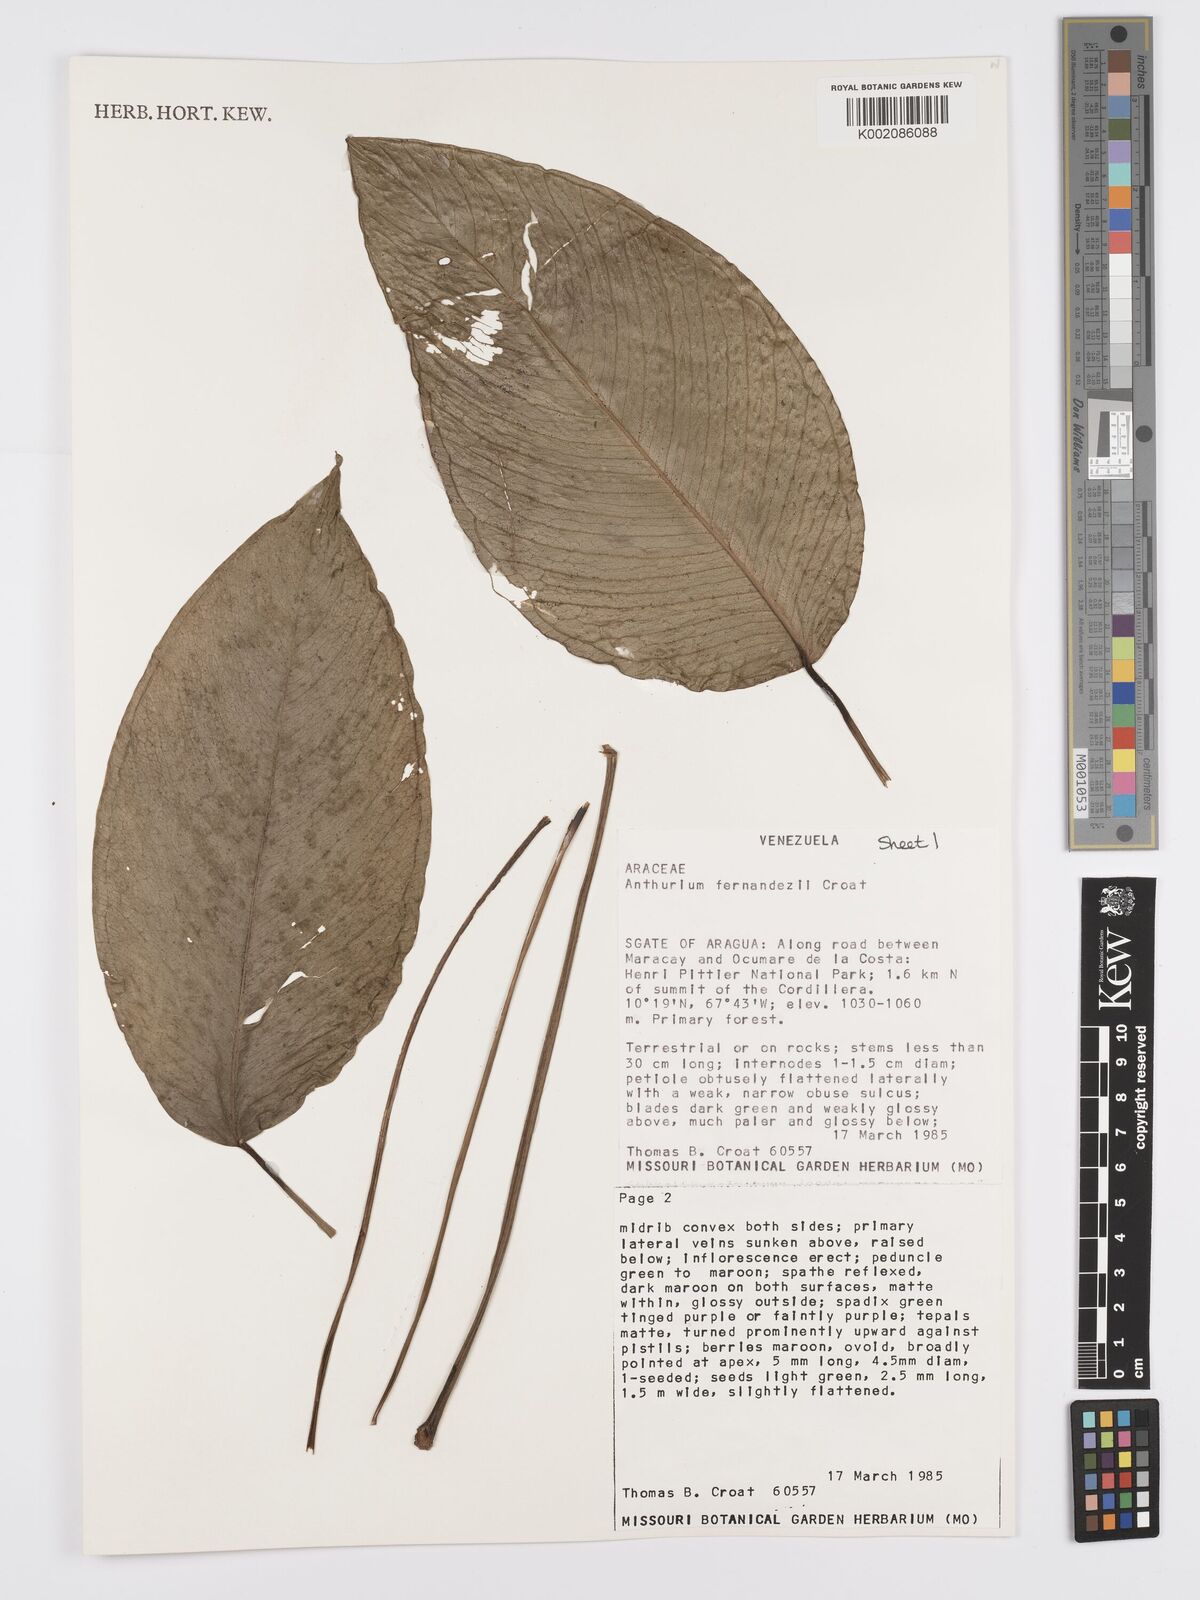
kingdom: Plantae
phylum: Tracheophyta
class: Liliopsida
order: Alismatales
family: Araceae
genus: Anthurium
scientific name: Anthurium fernandezii
